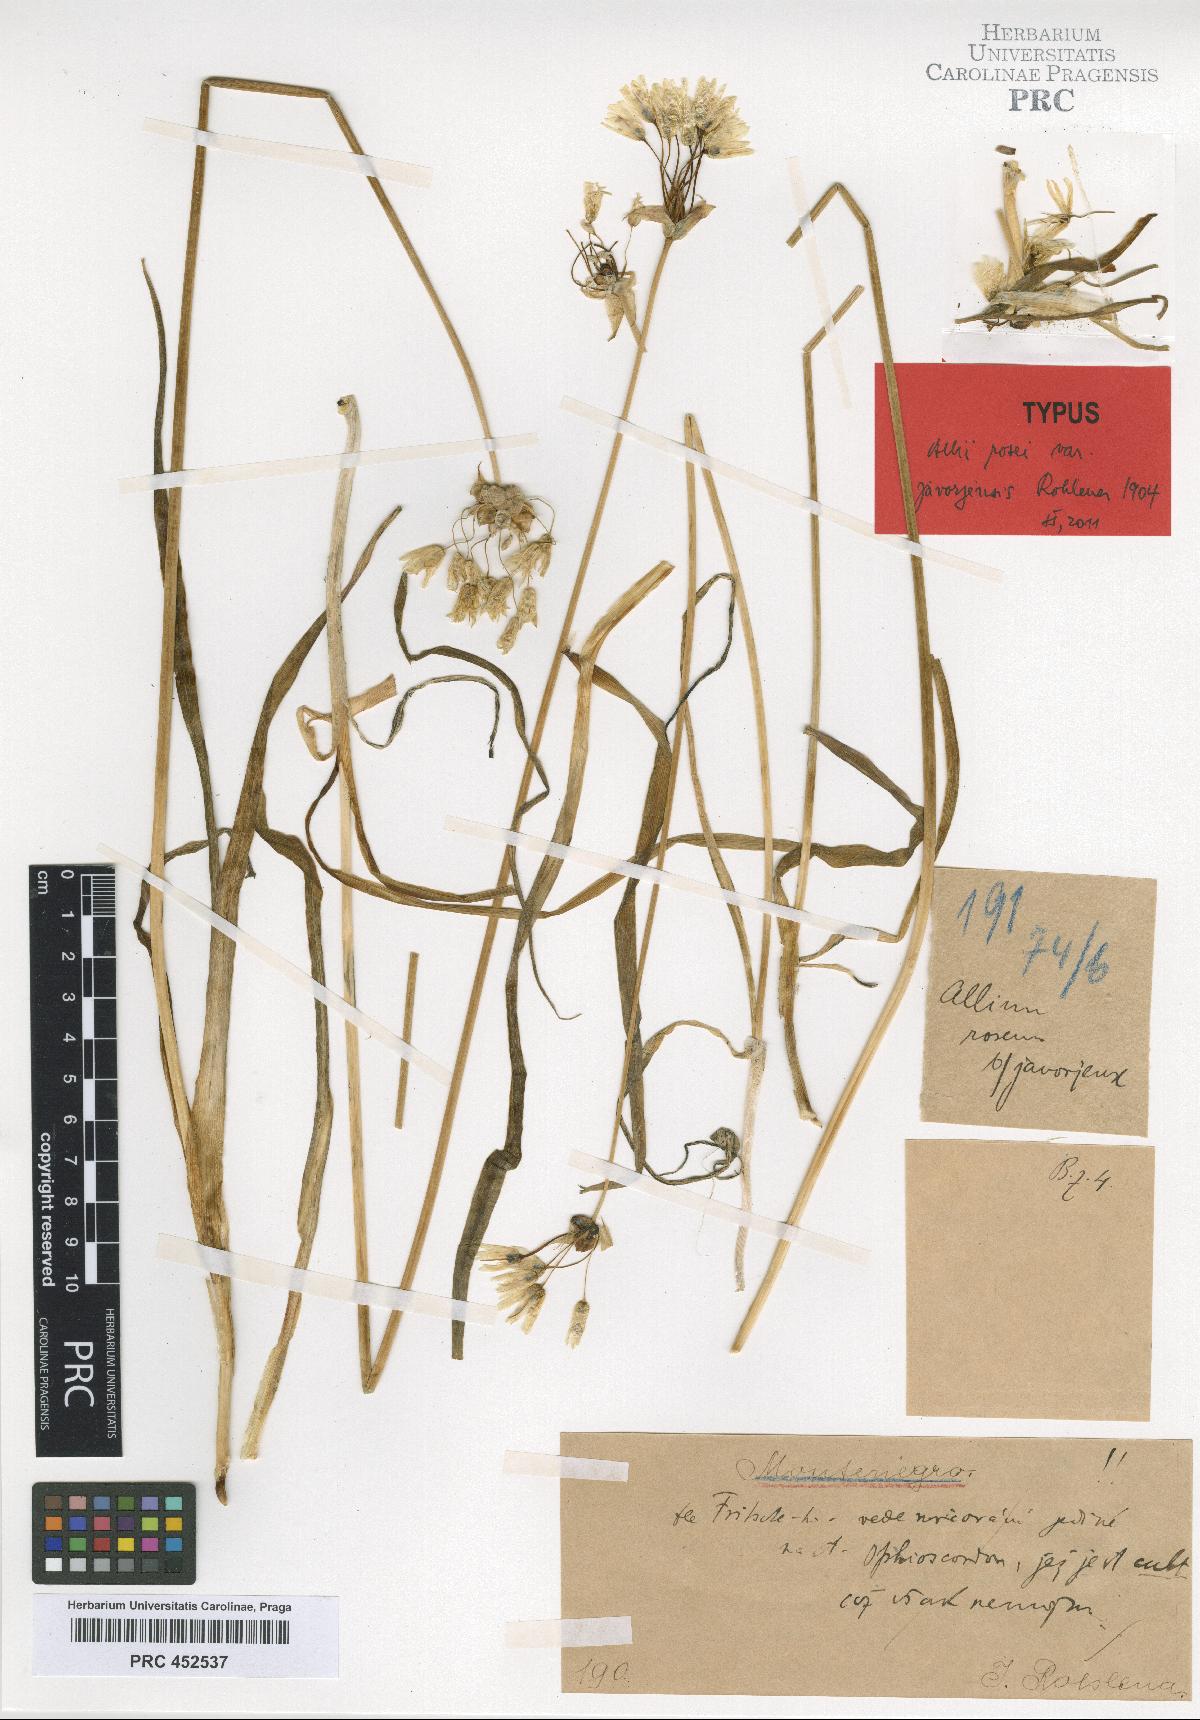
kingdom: Plantae
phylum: Tracheophyta
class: Liliopsida
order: Asparagales
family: Amaryllidaceae
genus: Allium
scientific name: Allium roseum
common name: Rosy garlic
